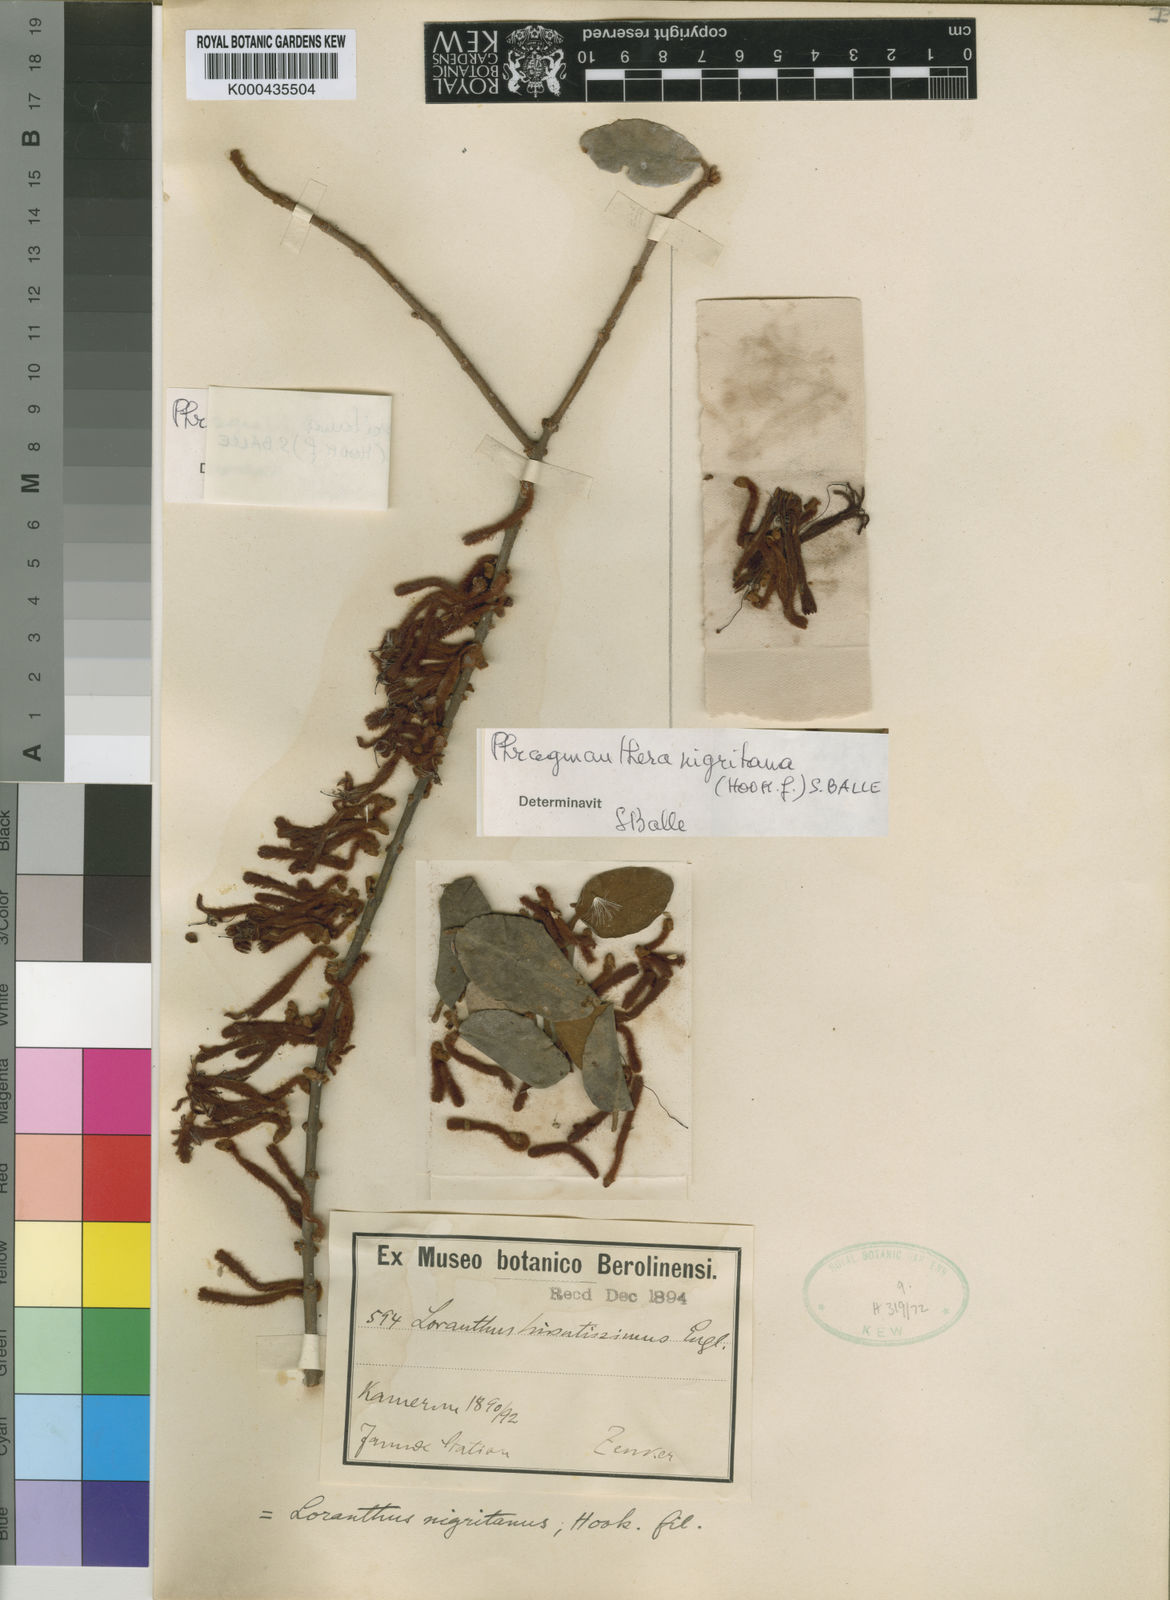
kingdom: Plantae
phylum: Tracheophyta
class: Magnoliopsida
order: Santalales
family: Loranthaceae
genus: Phragmanthera
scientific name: Phragmanthera nigritana
